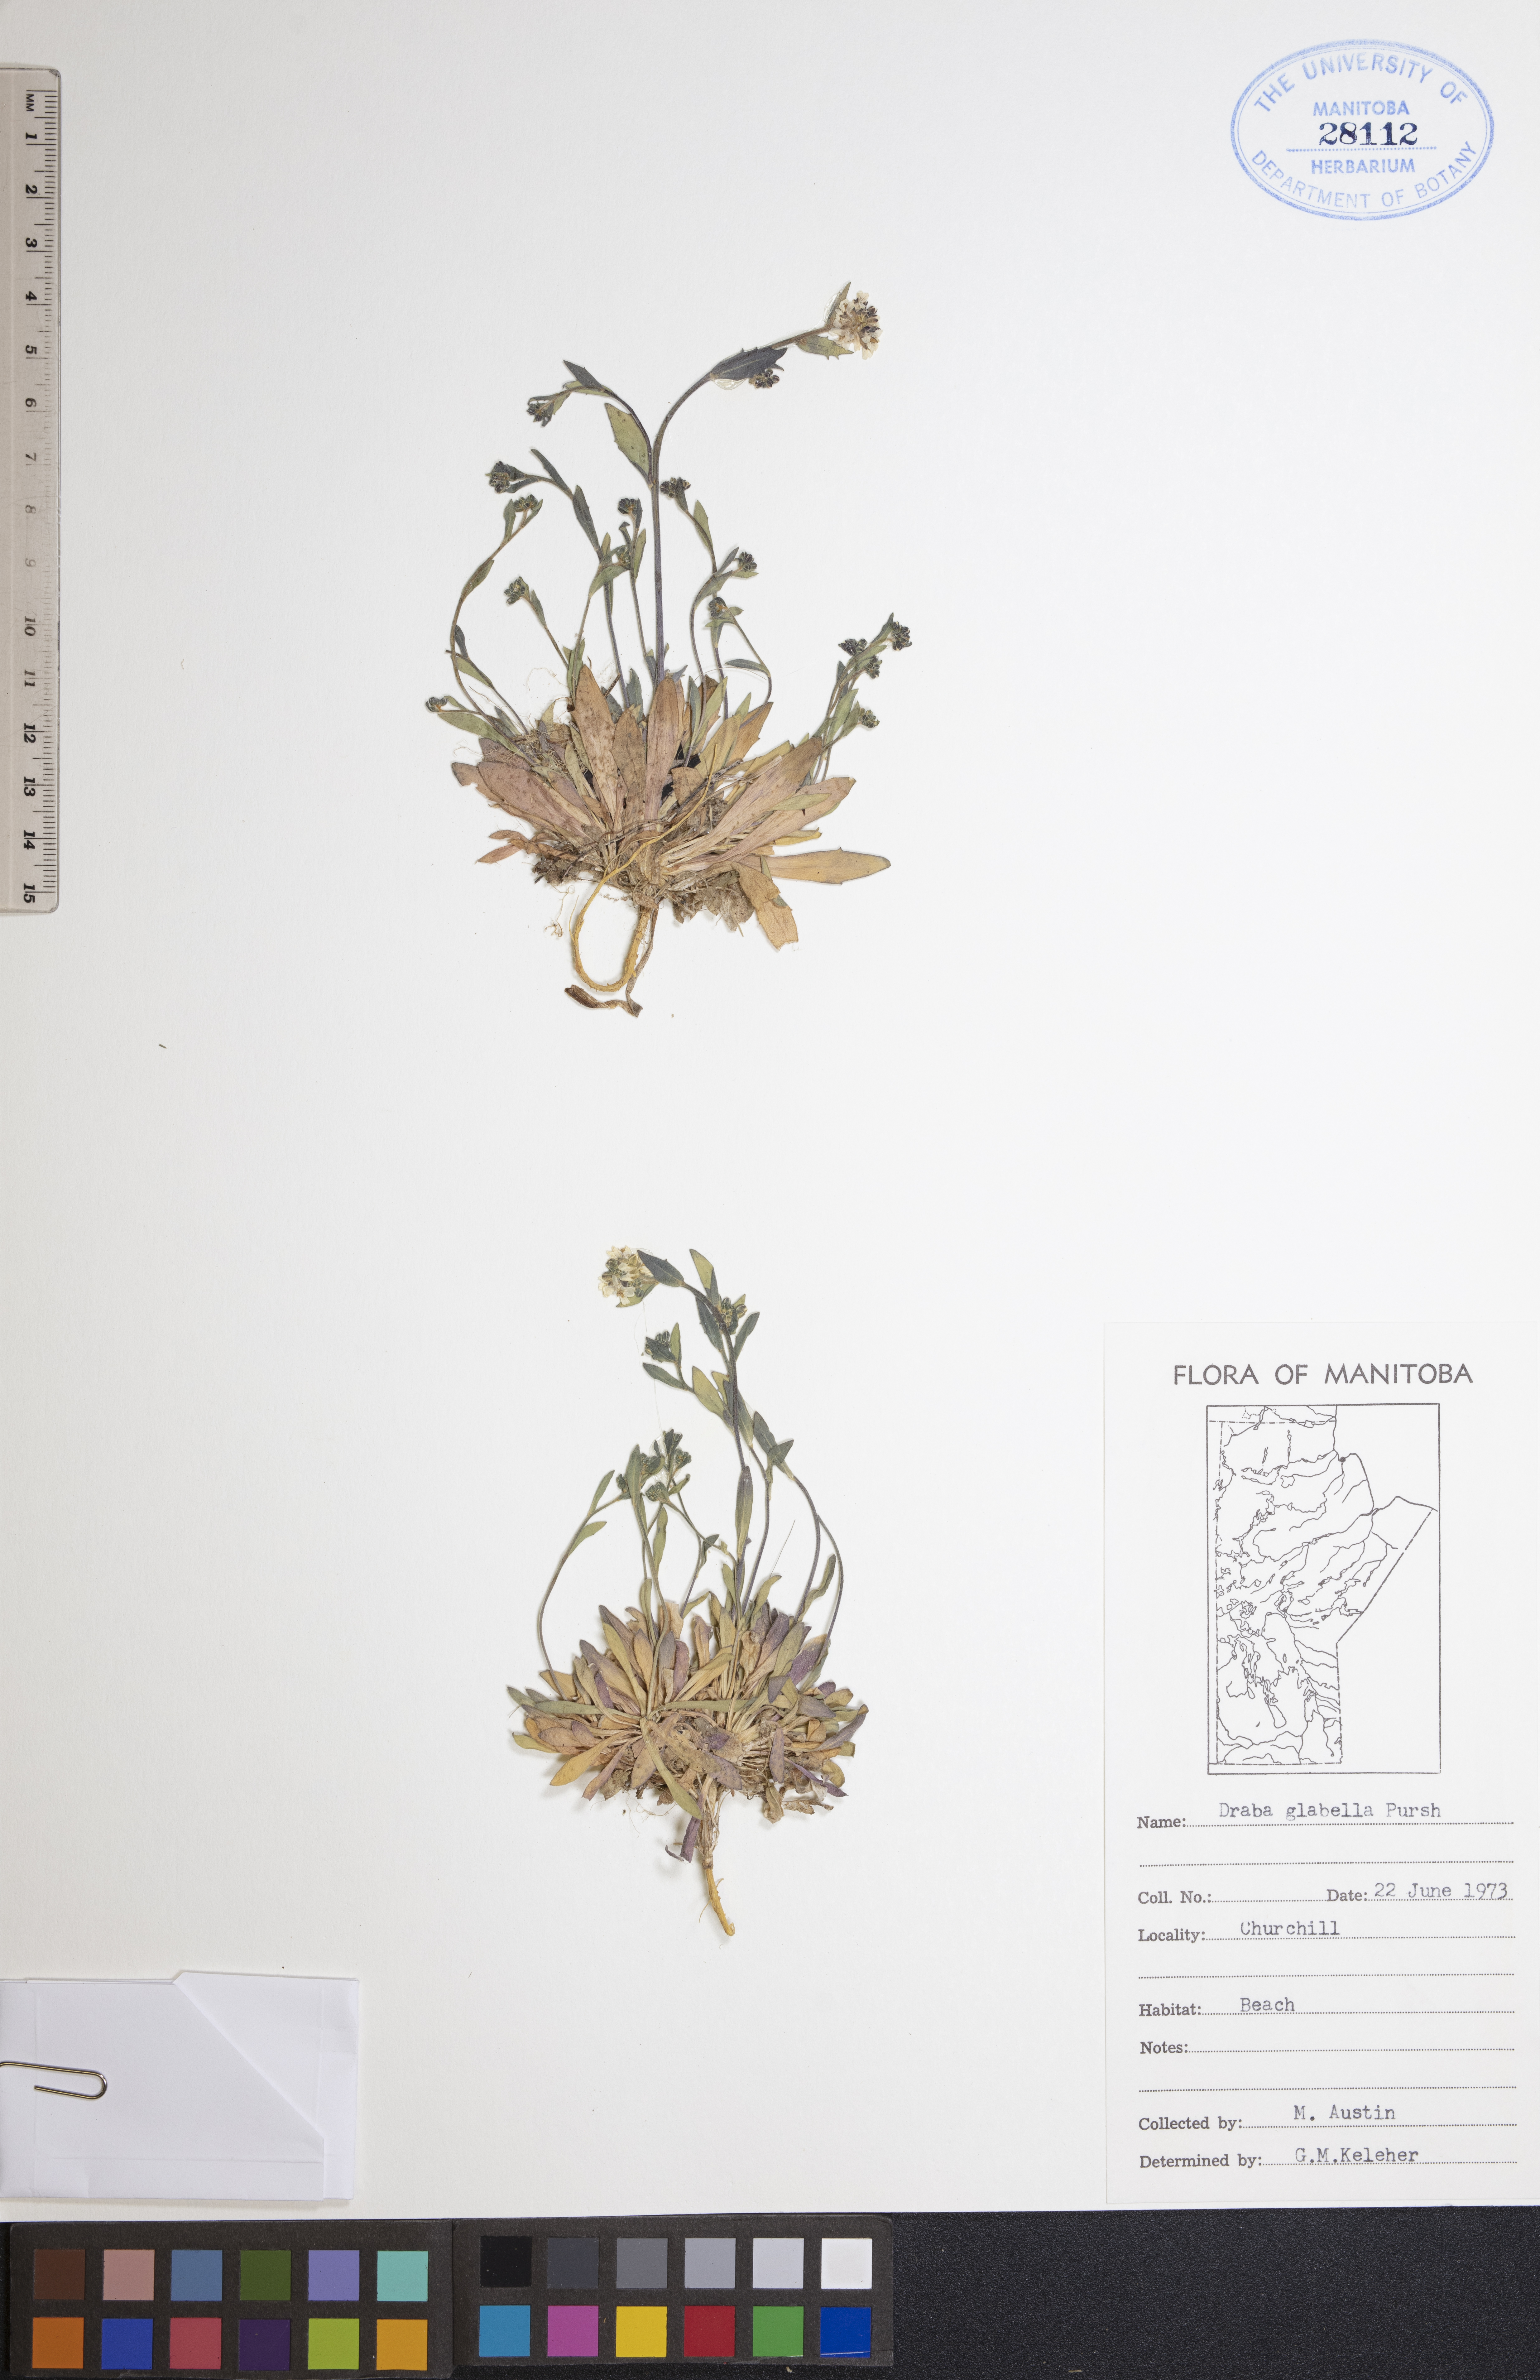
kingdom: Plantae
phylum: Tracheophyta
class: Magnoliopsida
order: Brassicales
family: Brassicaceae
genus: Draba
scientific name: Draba glabella
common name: Glaucous draba
